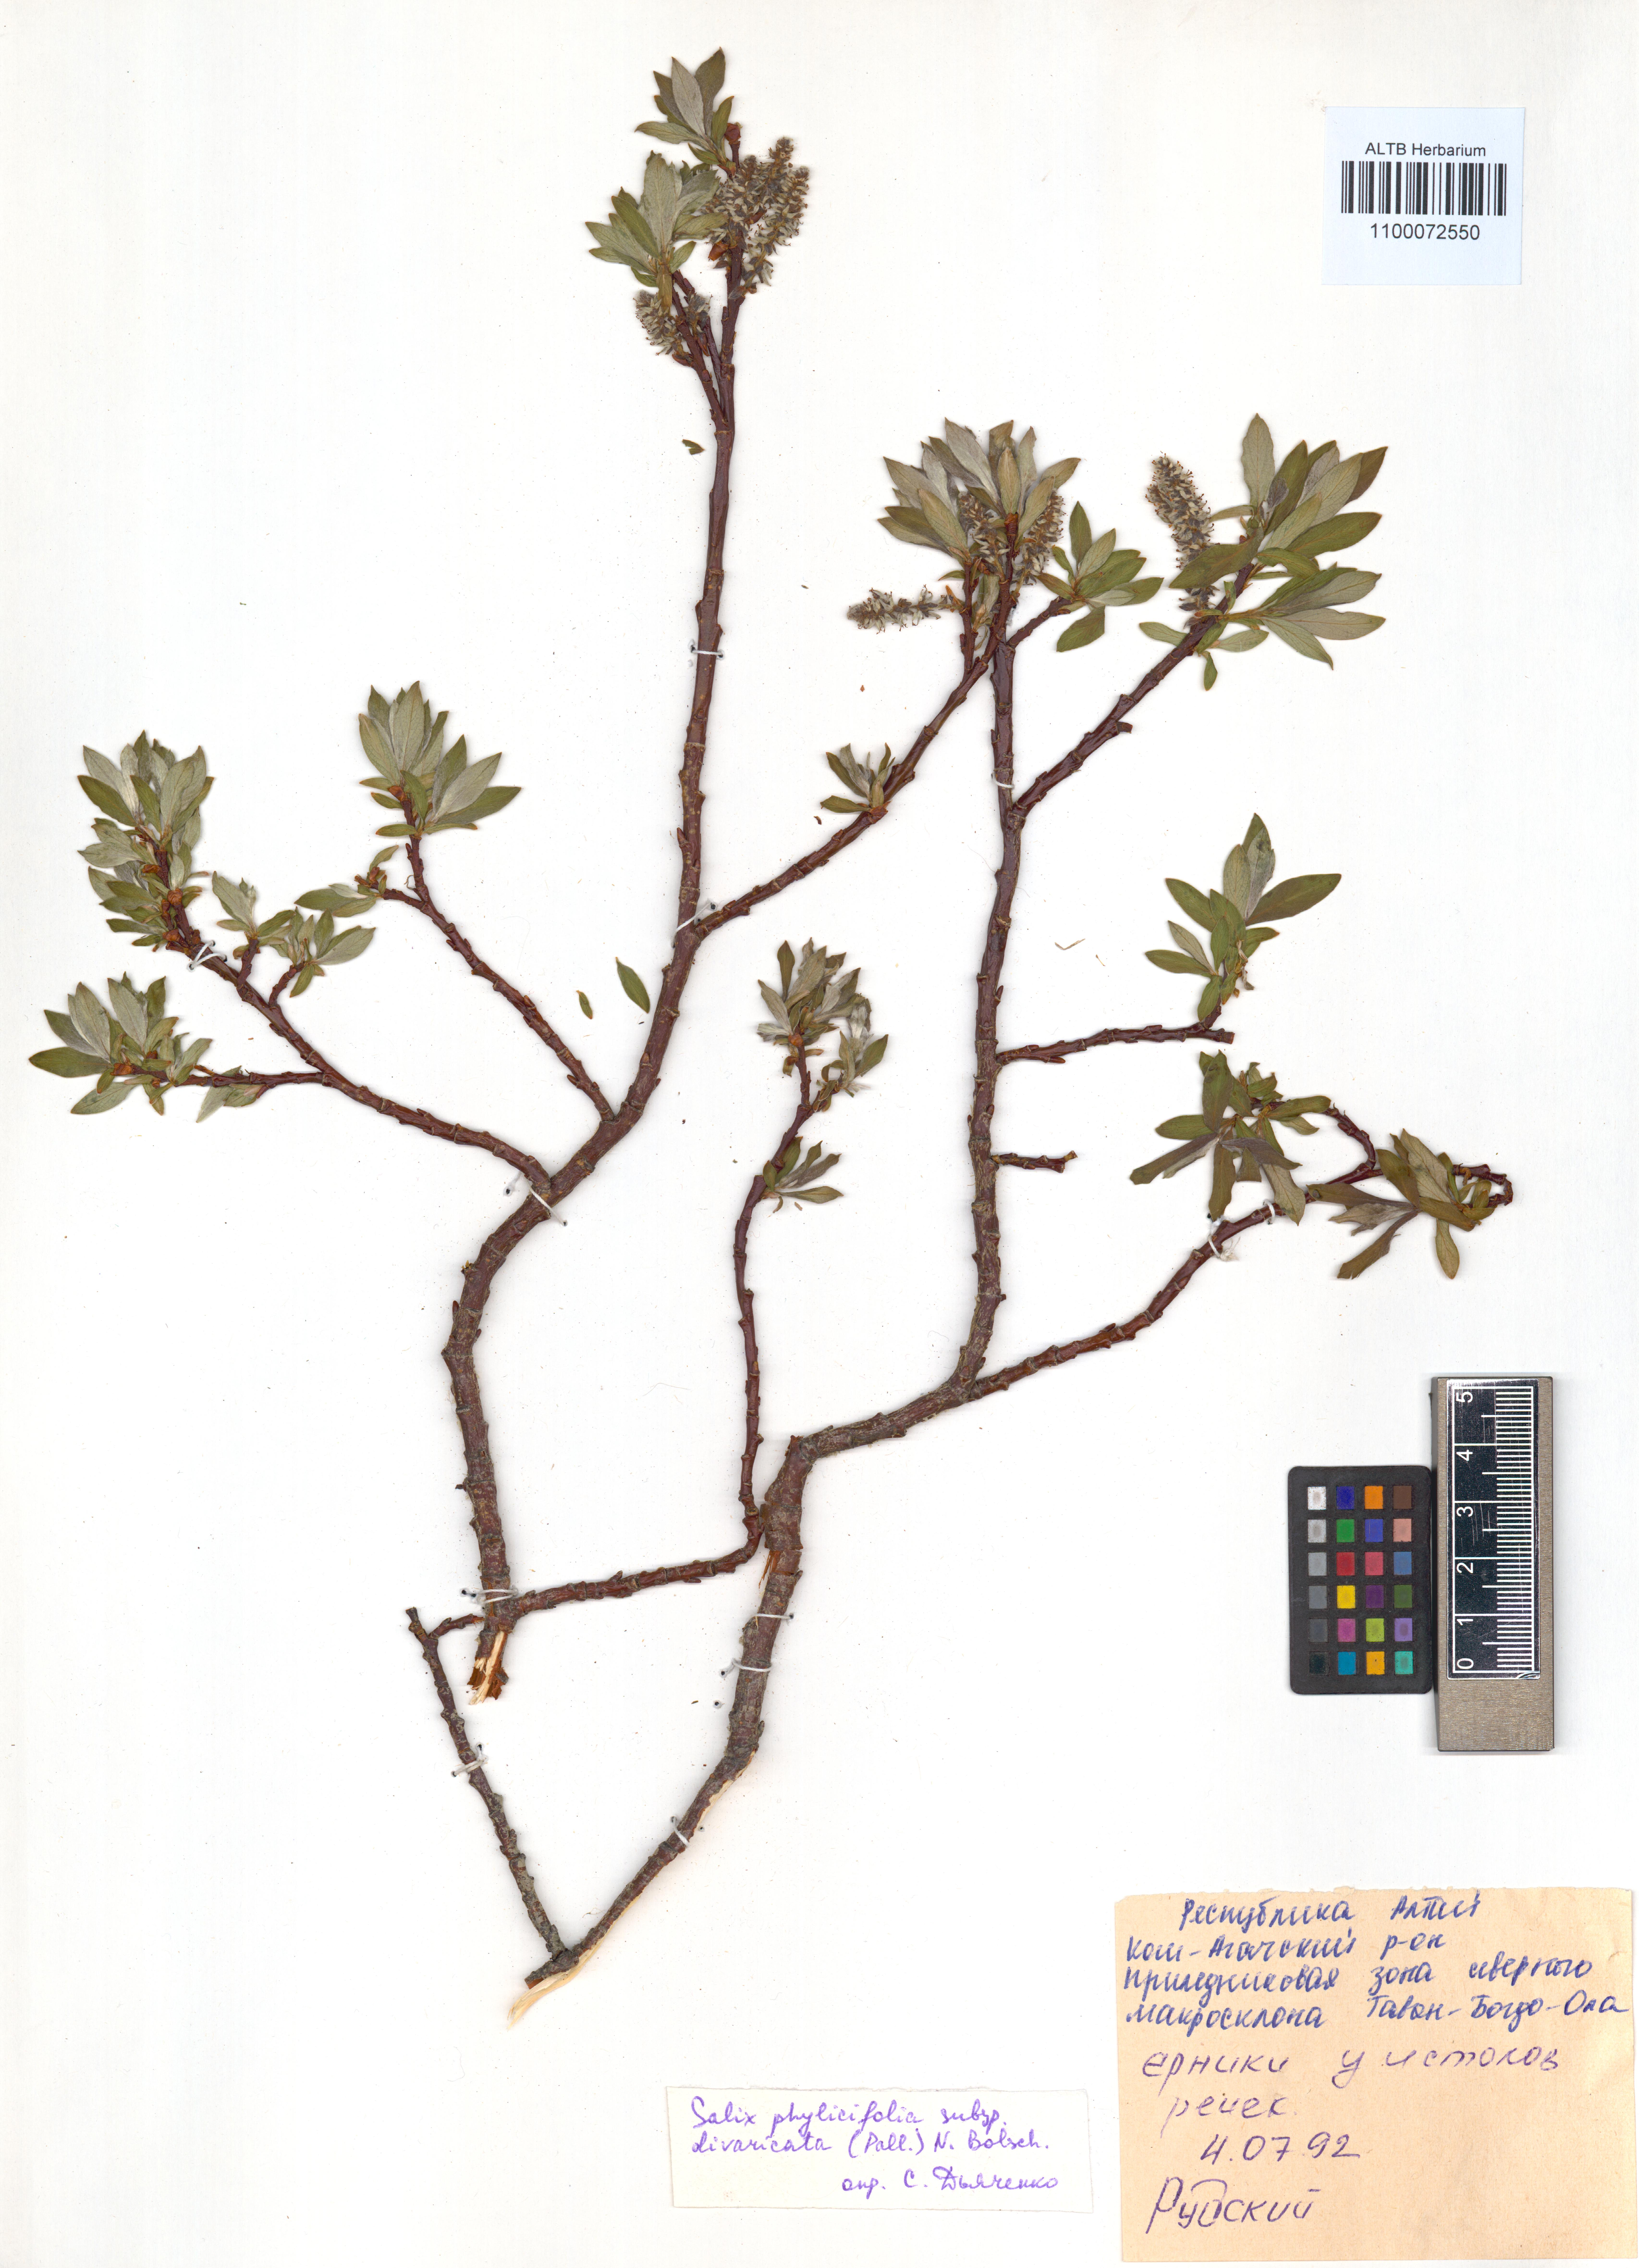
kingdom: Plantae
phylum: Tracheophyta
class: Magnoliopsida
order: Malpighiales
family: Salicaceae
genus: Salix
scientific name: Salix phylicifolia
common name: Tea-leaved willow
